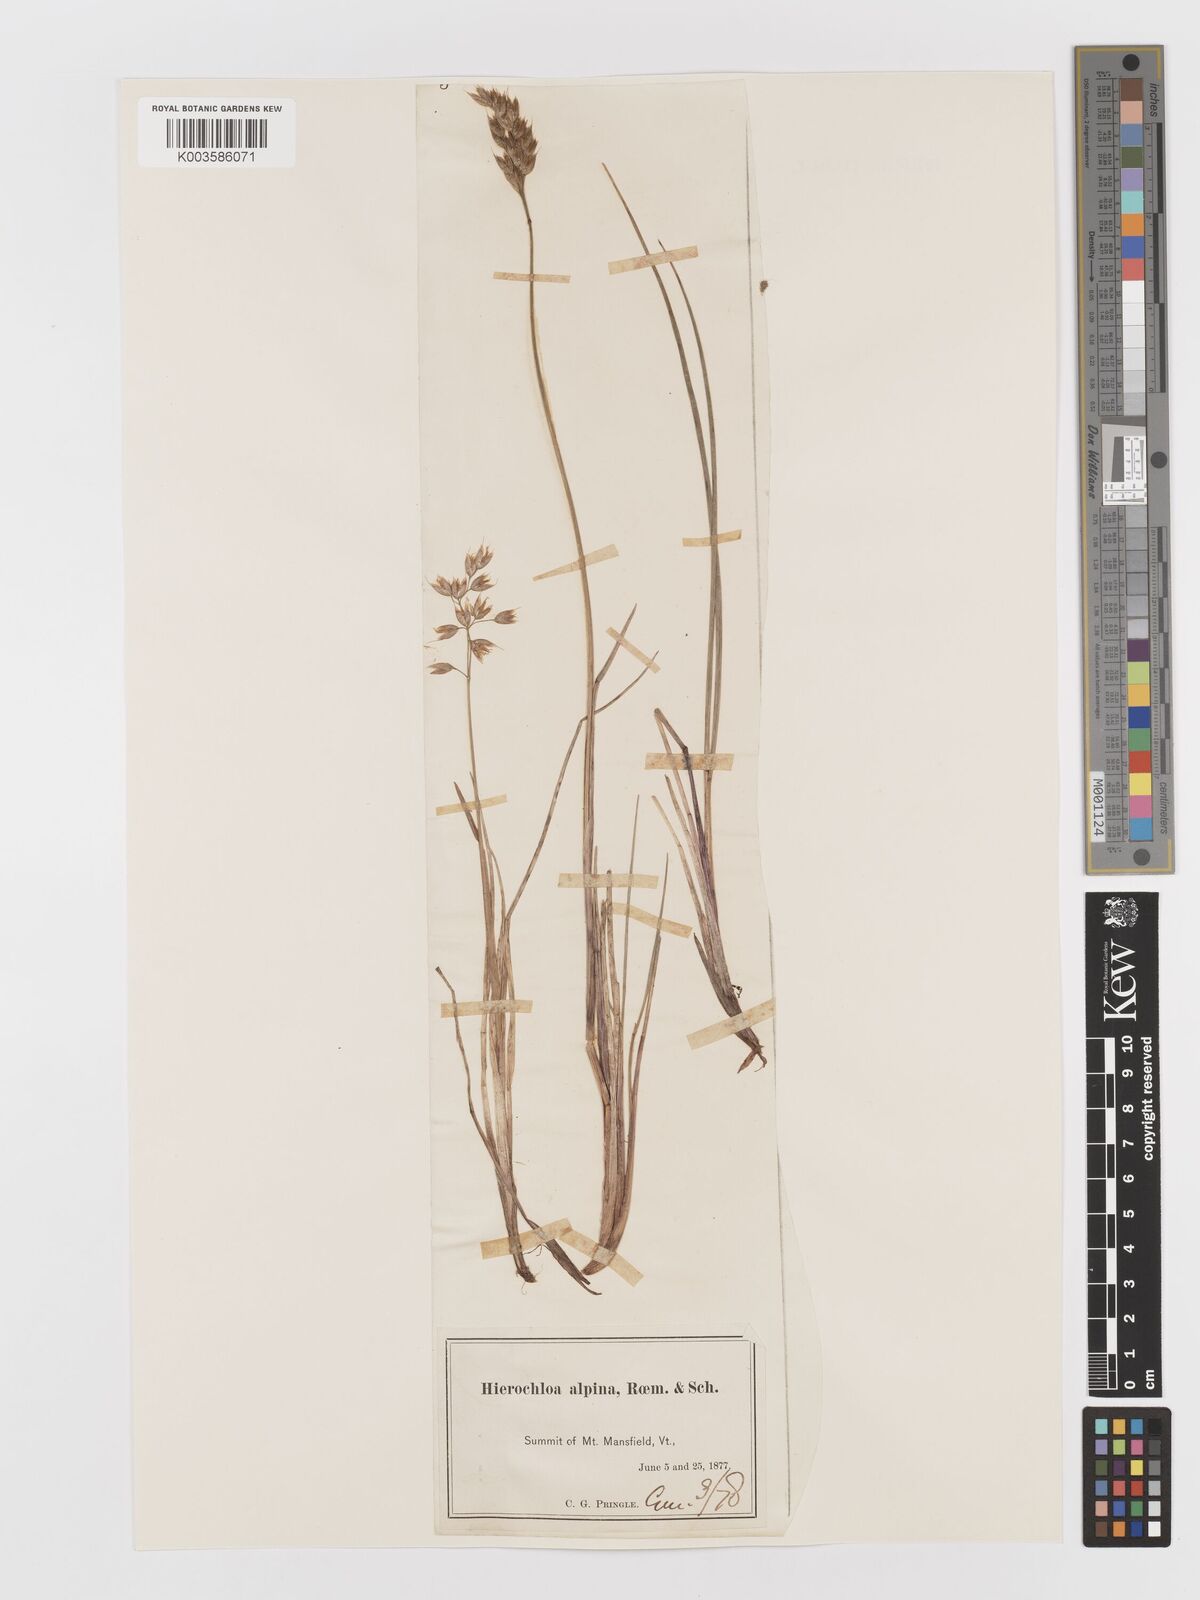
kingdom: Plantae
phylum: Tracheophyta
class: Liliopsida
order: Poales
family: Poaceae
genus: Anthoxanthum
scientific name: Anthoxanthum monticola
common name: Alpine sweetgrass
